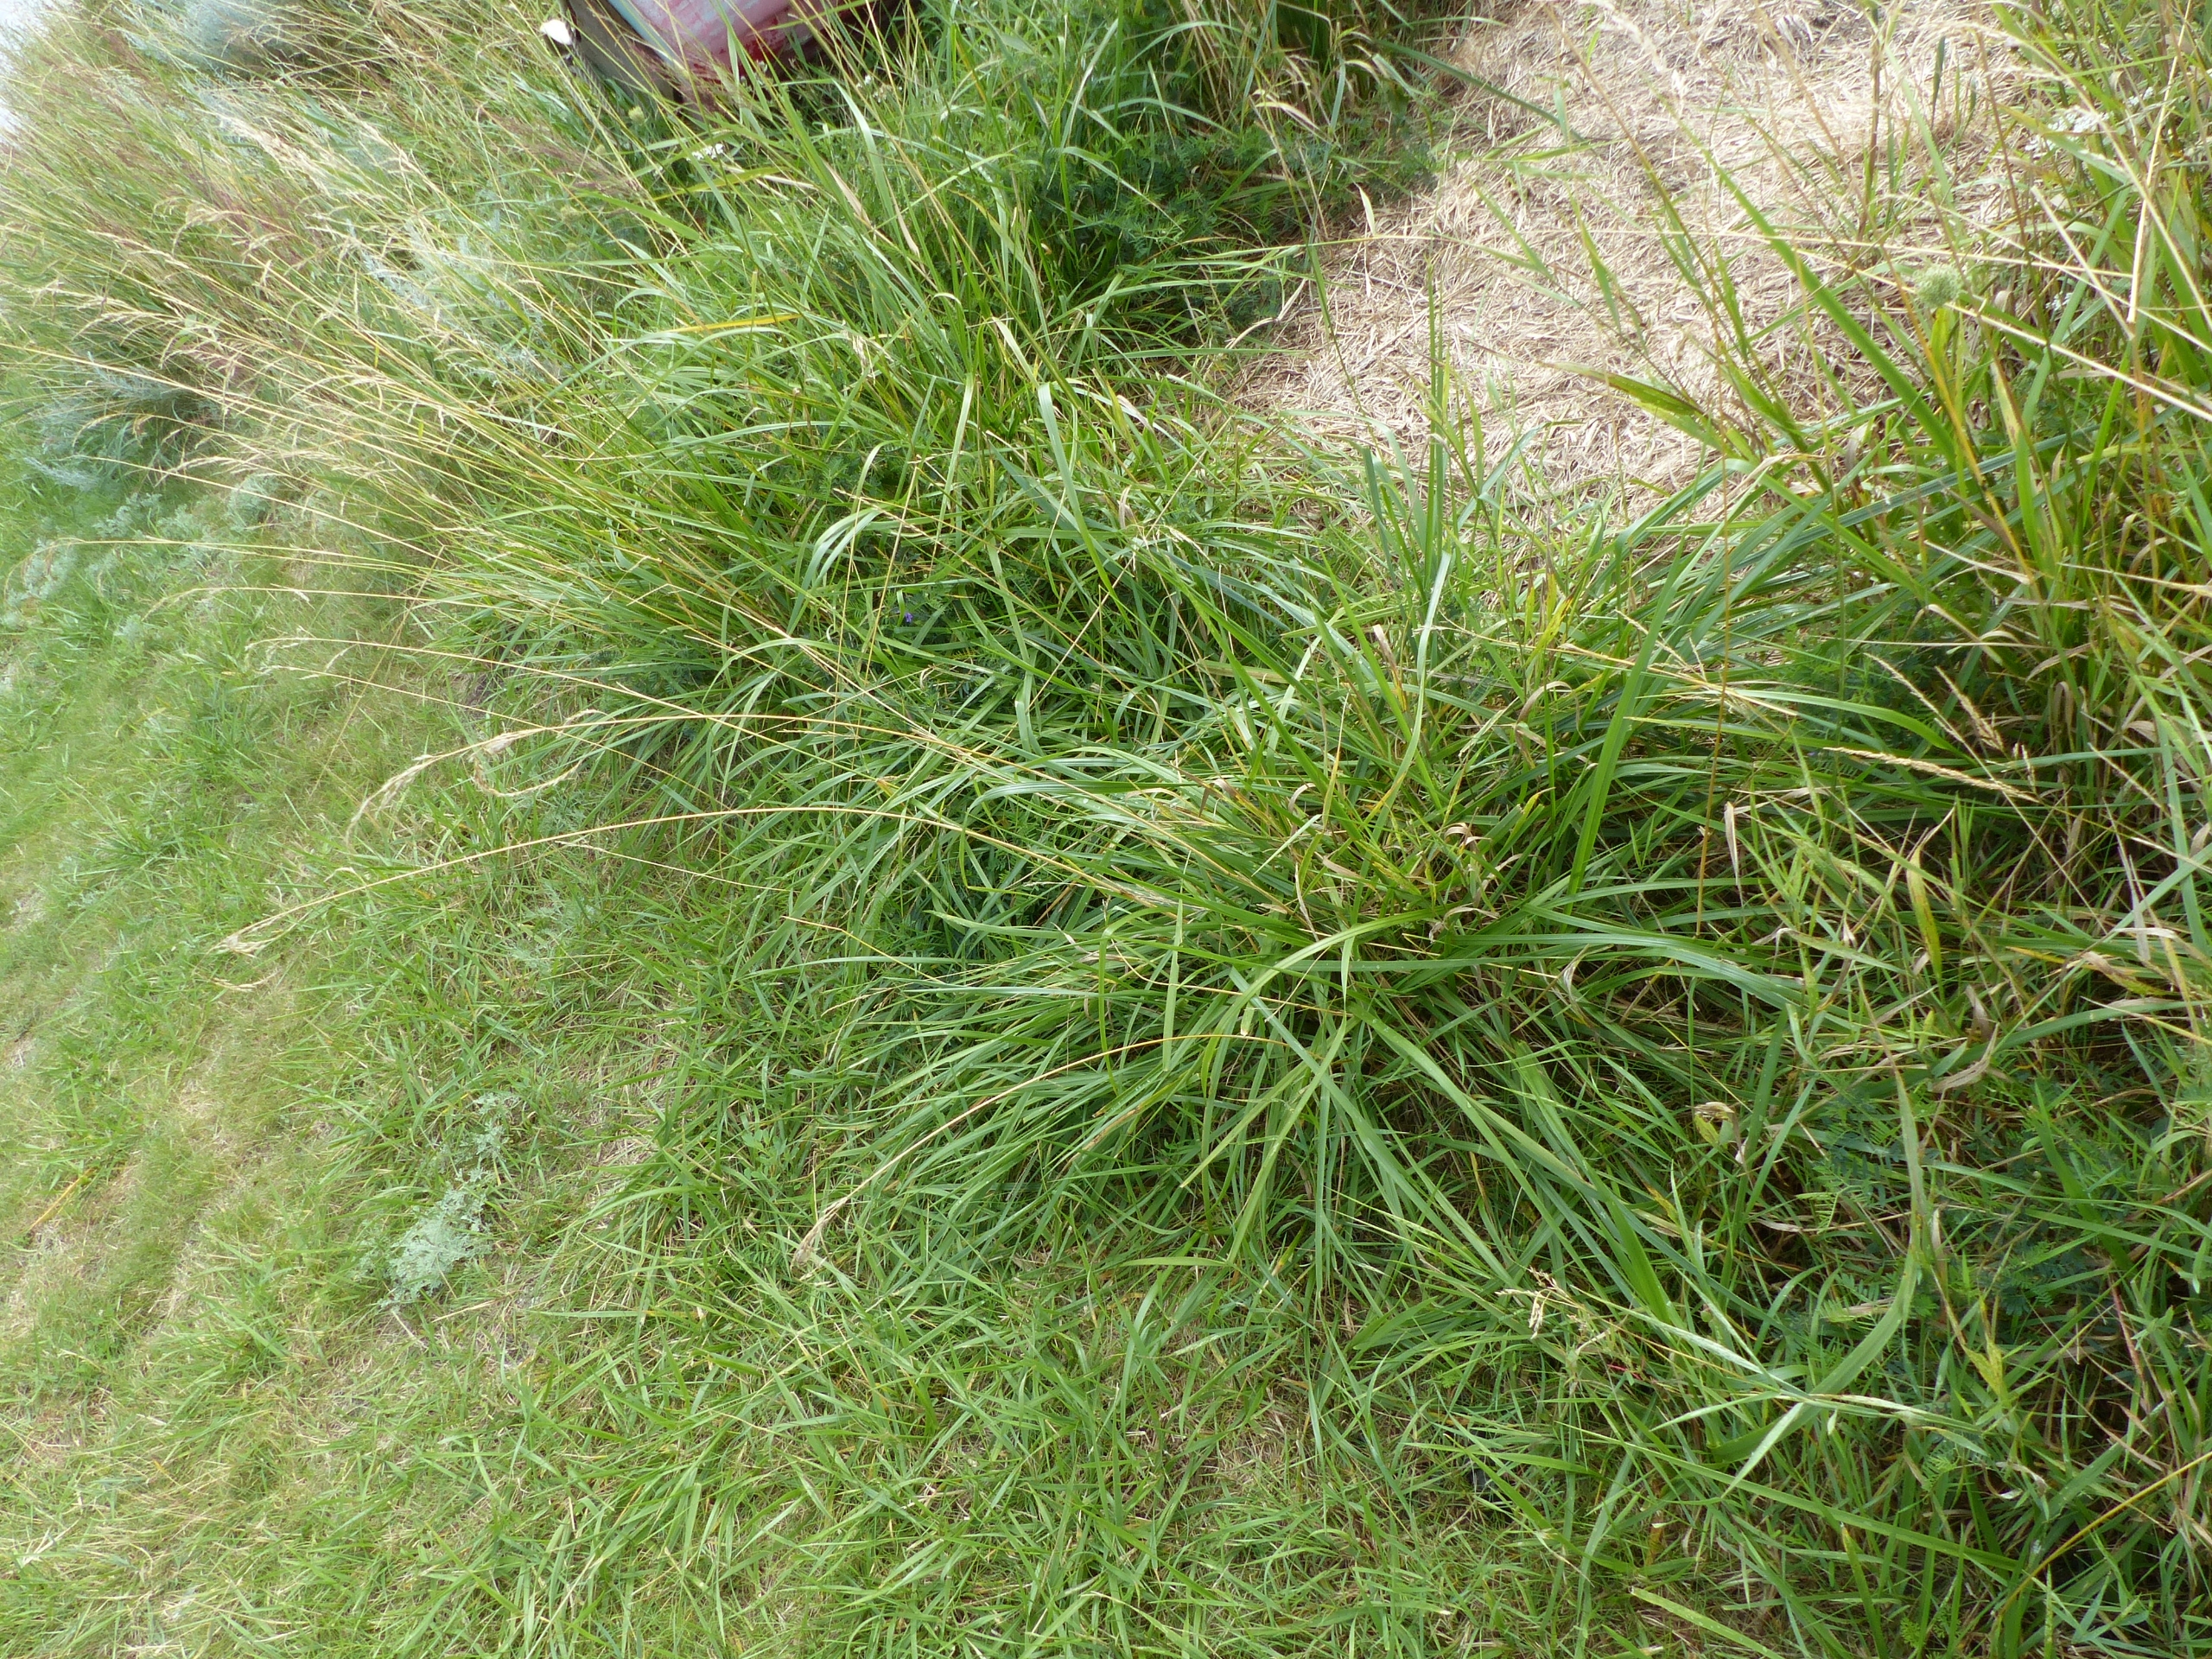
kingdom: Plantae
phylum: Tracheophyta
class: Liliopsida
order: Poales
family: Poaceae
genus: Lolium
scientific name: Lolium arundinaceum
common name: Strand-svingel
